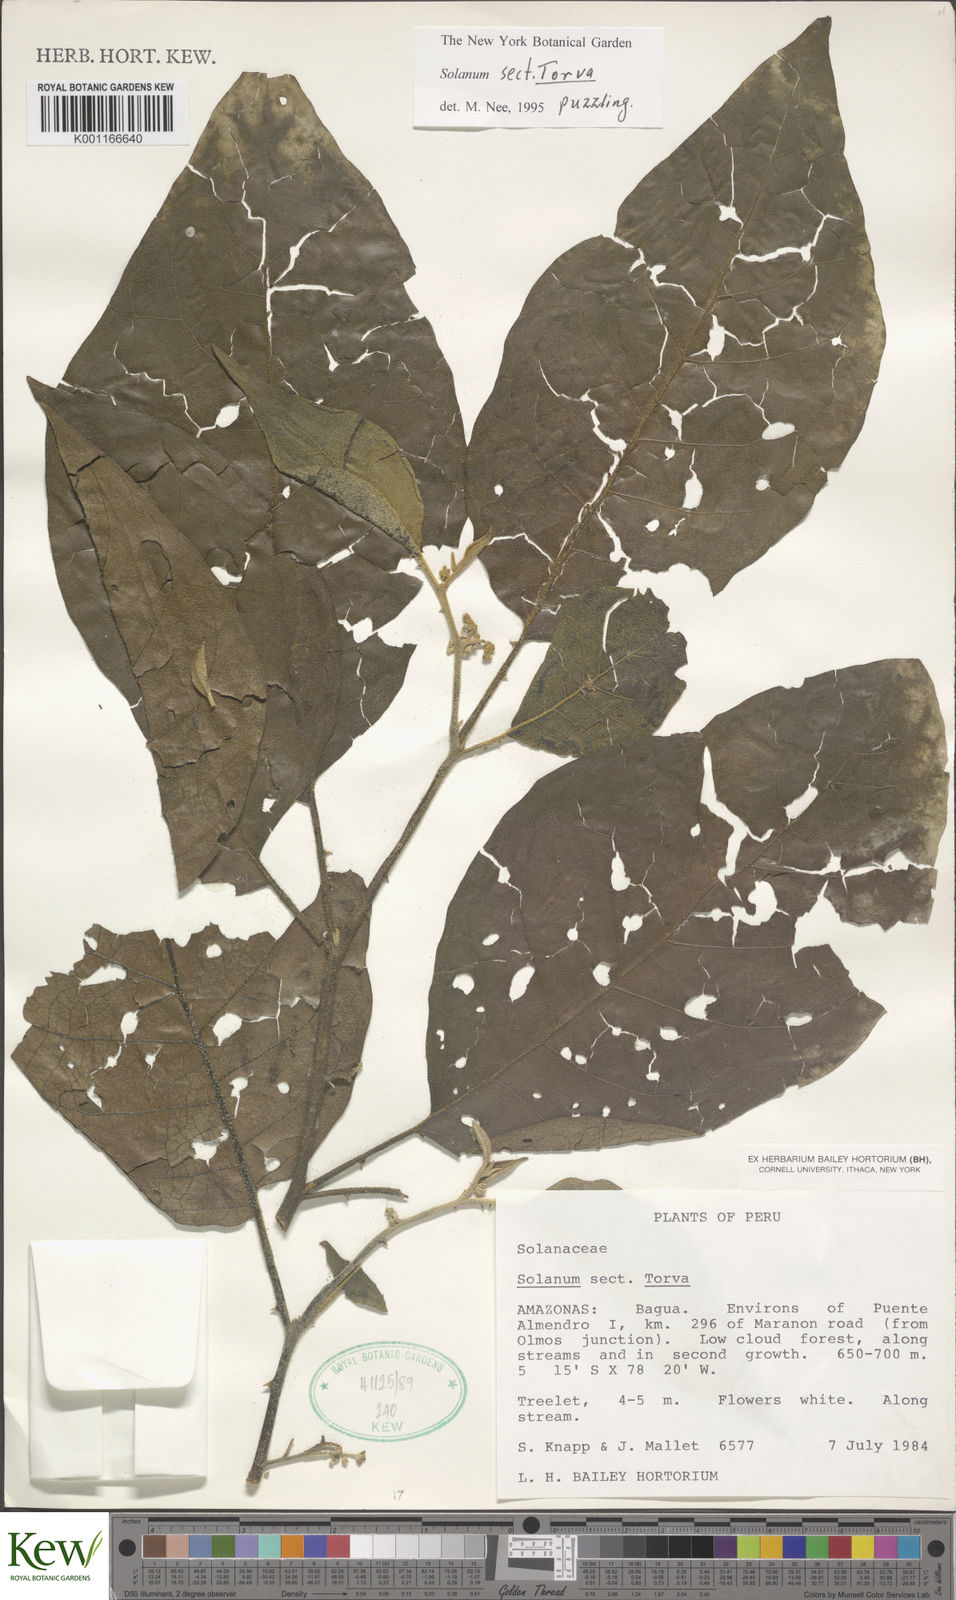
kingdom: Plantae
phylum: Tracheophyta
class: Magnoliopsida
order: Solanales
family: Solanaceae
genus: Solanum
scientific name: Solanum
